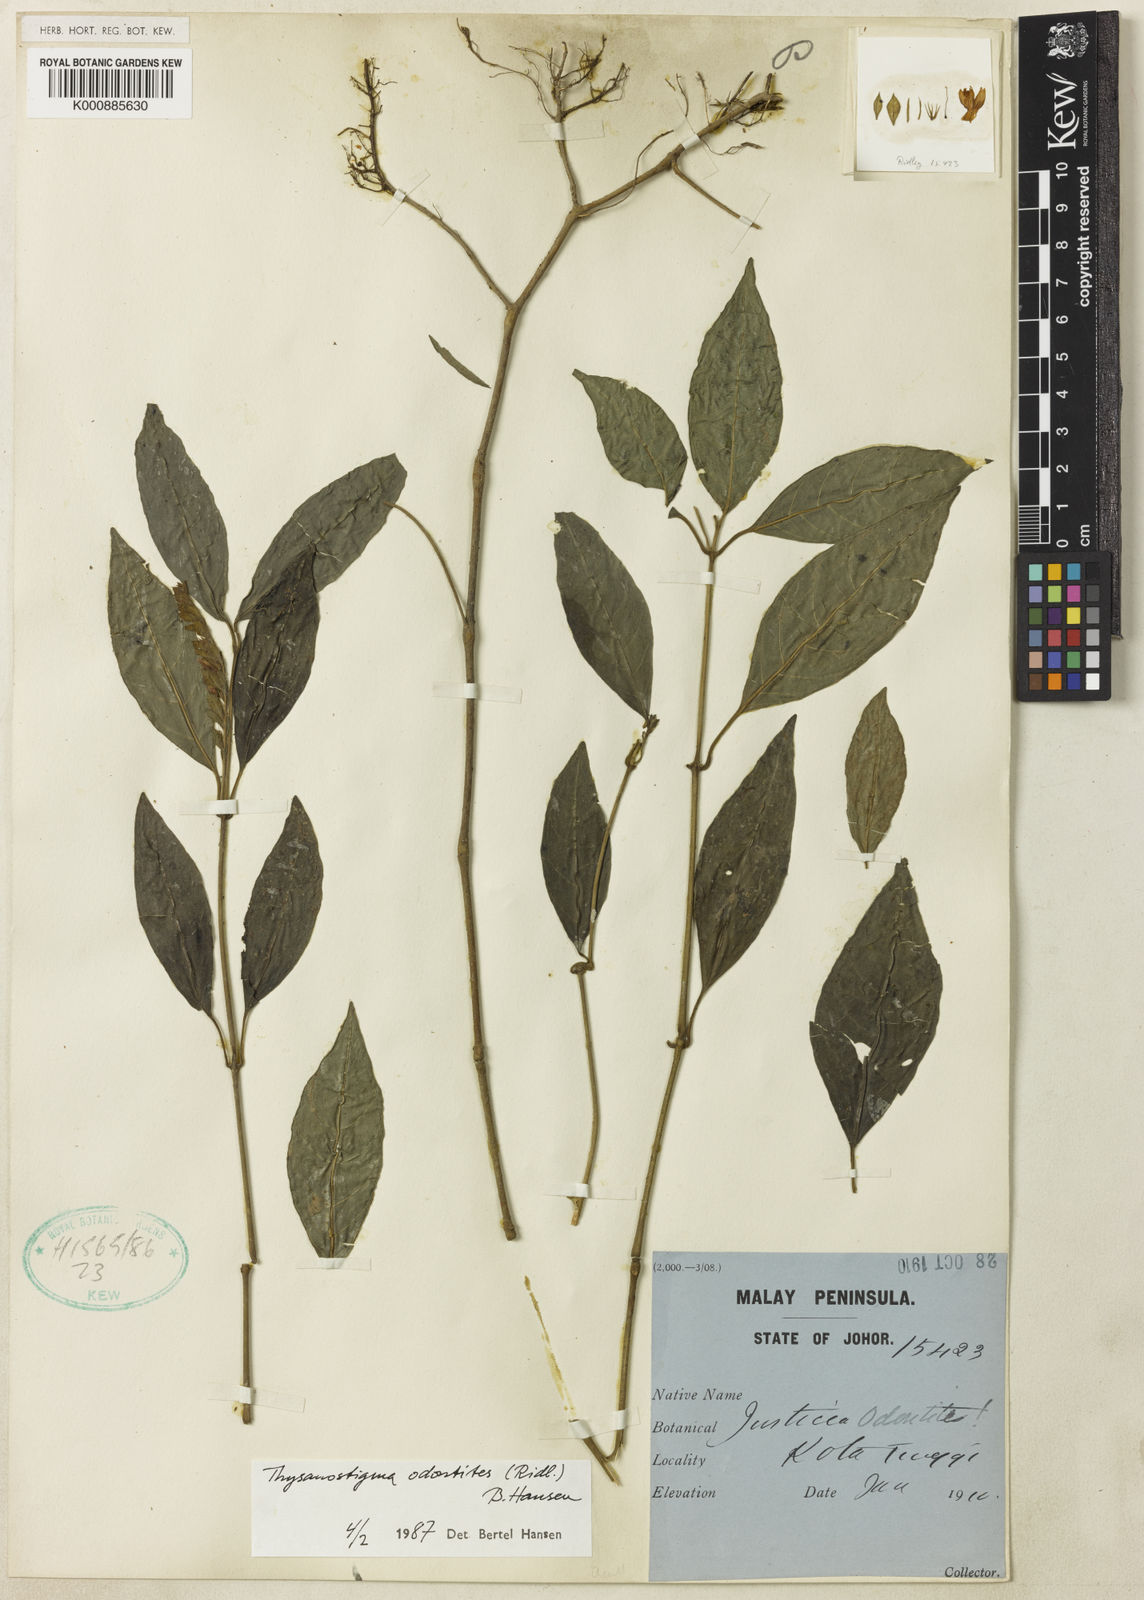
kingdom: Plantae
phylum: Tracheophyta
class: Magnoliopsida
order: Lamiales
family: Acanthaceae
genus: Thysanostigma
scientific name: Thysanostigma odontites
